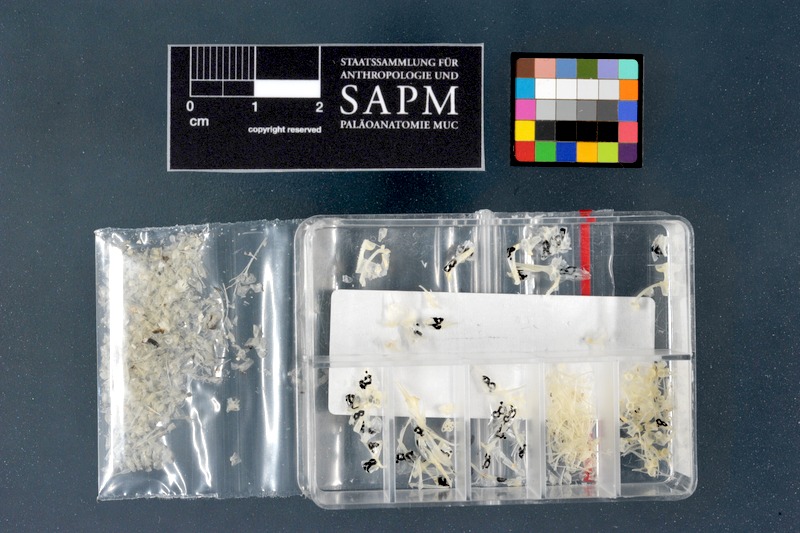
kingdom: Animalia
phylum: Chordata
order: Perciformes
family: Gobiidae
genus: Gobius
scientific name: Gobius niger
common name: Black goby
